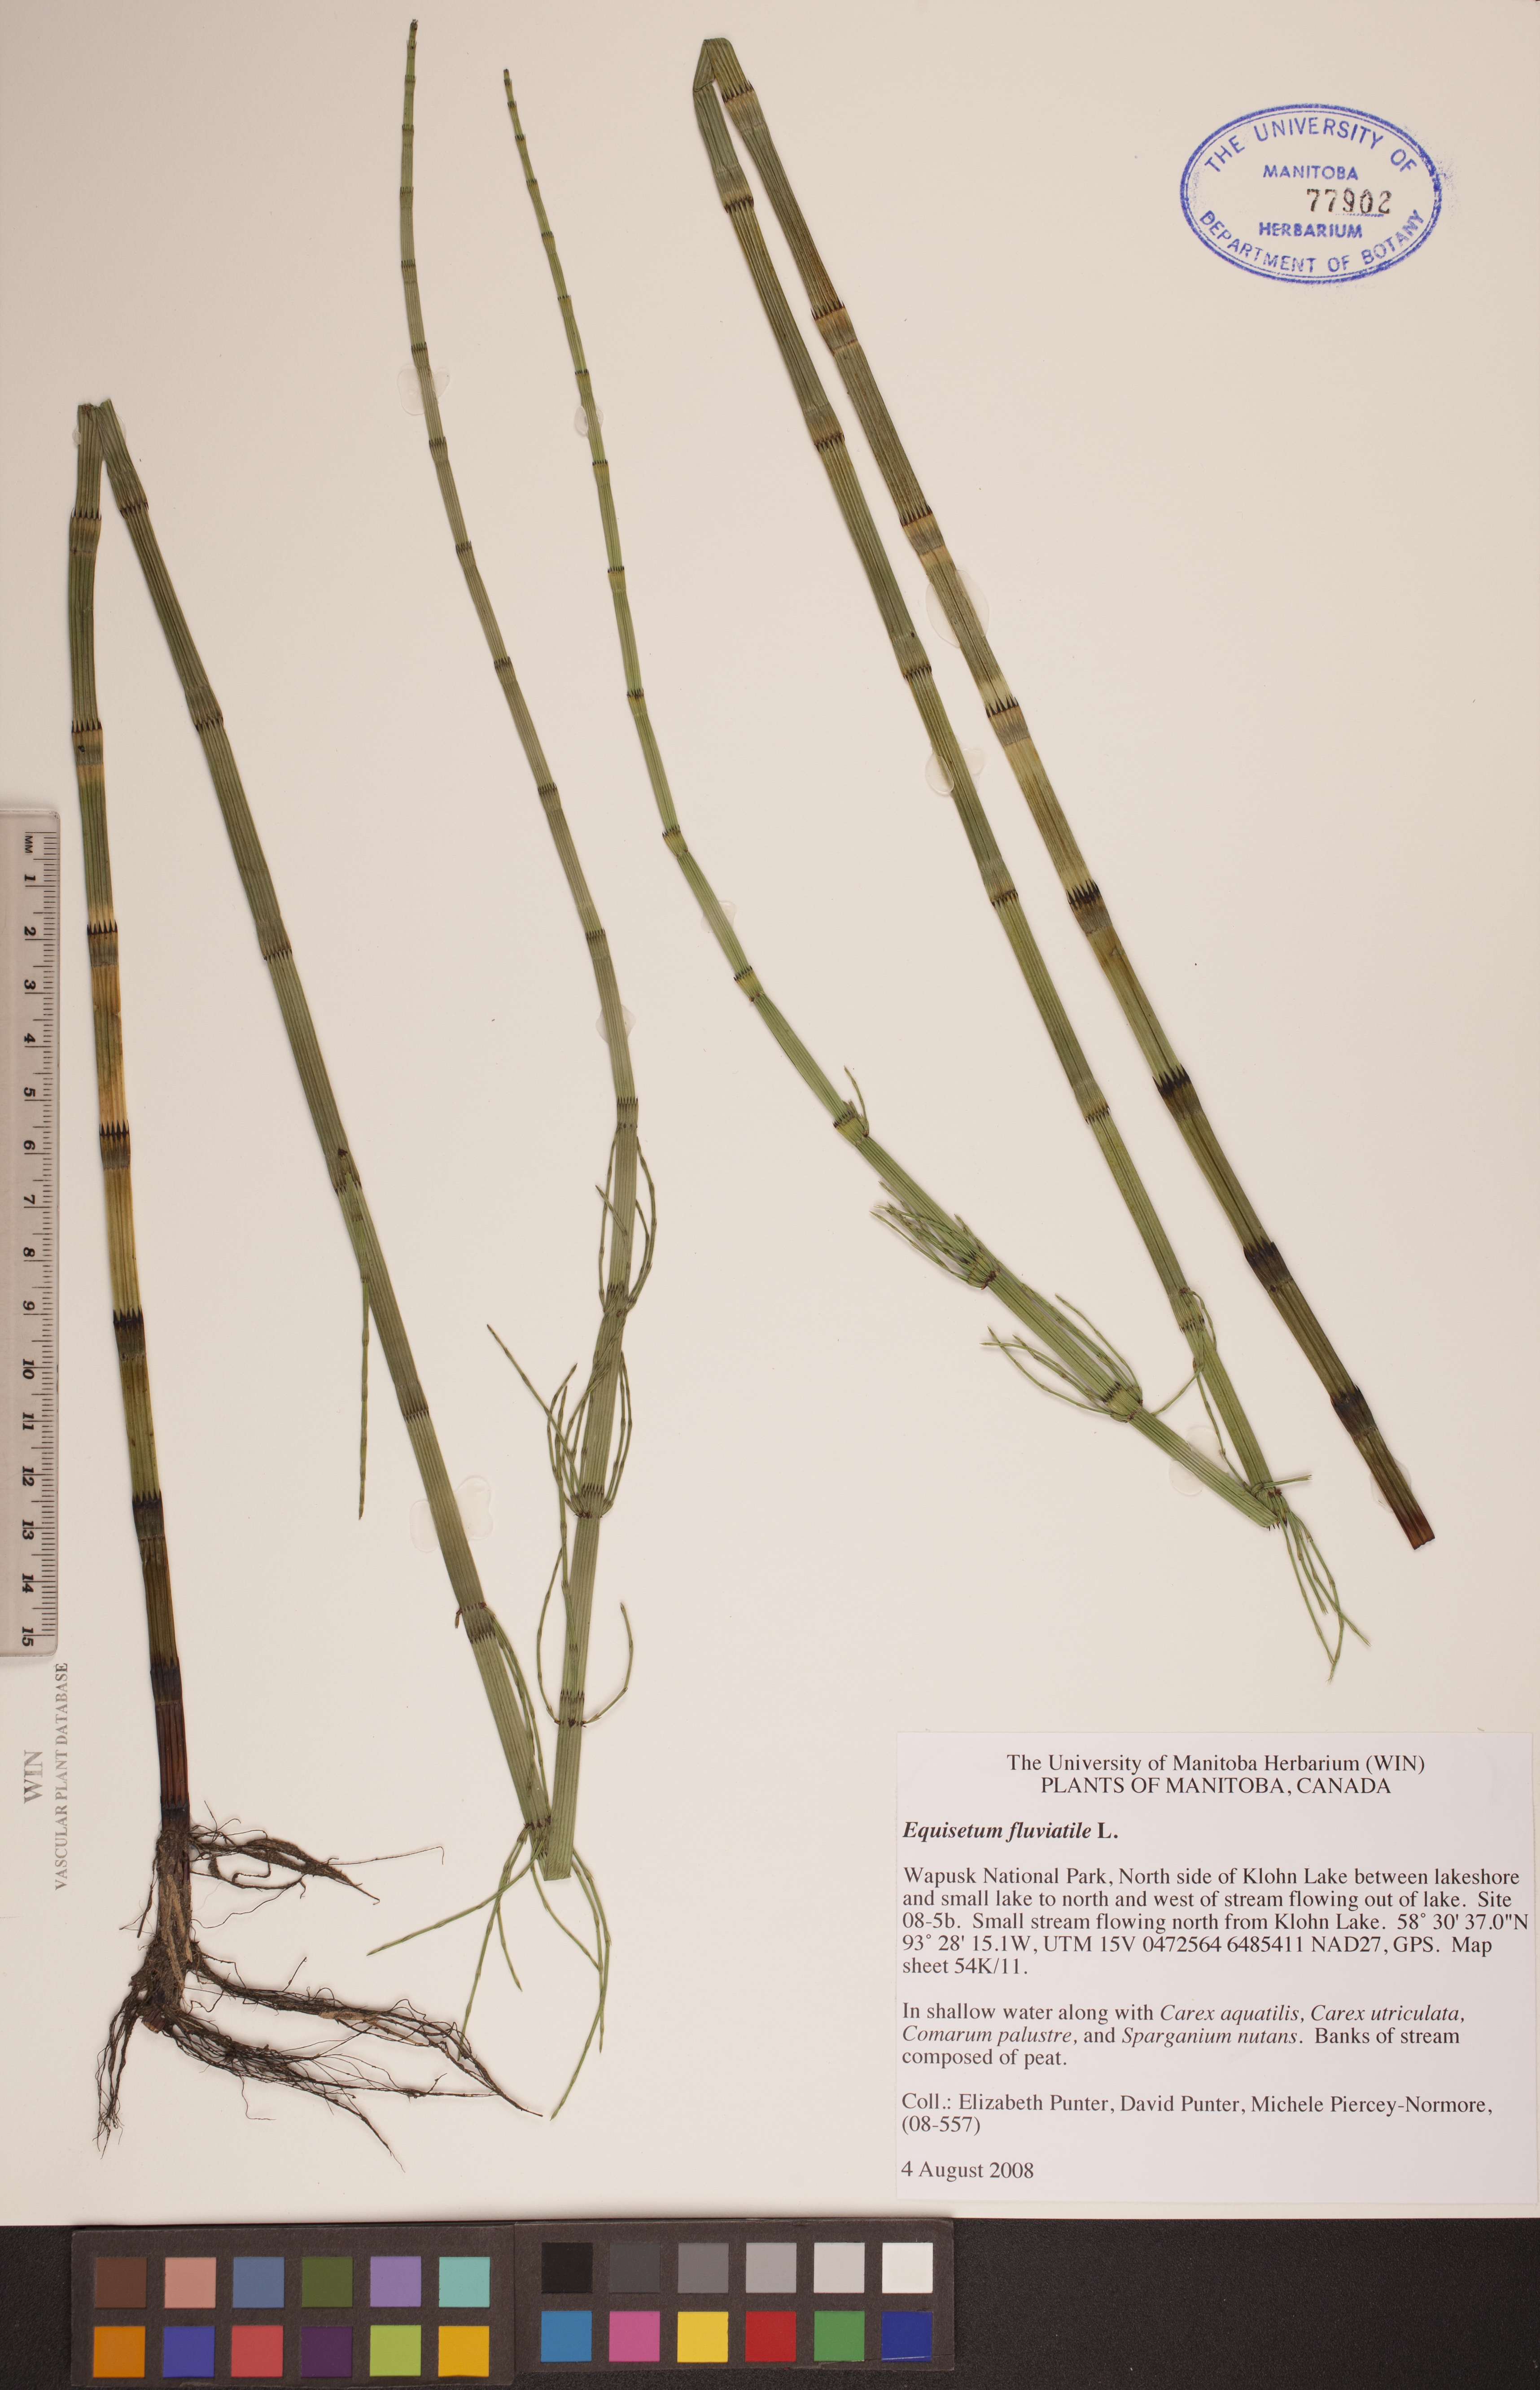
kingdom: Plantae
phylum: Tracheophyta
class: Polypodiopsida
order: Equisetales
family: Equisetaceae
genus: Equisetum
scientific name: Equisetum fluviatile
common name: Water horsetail
